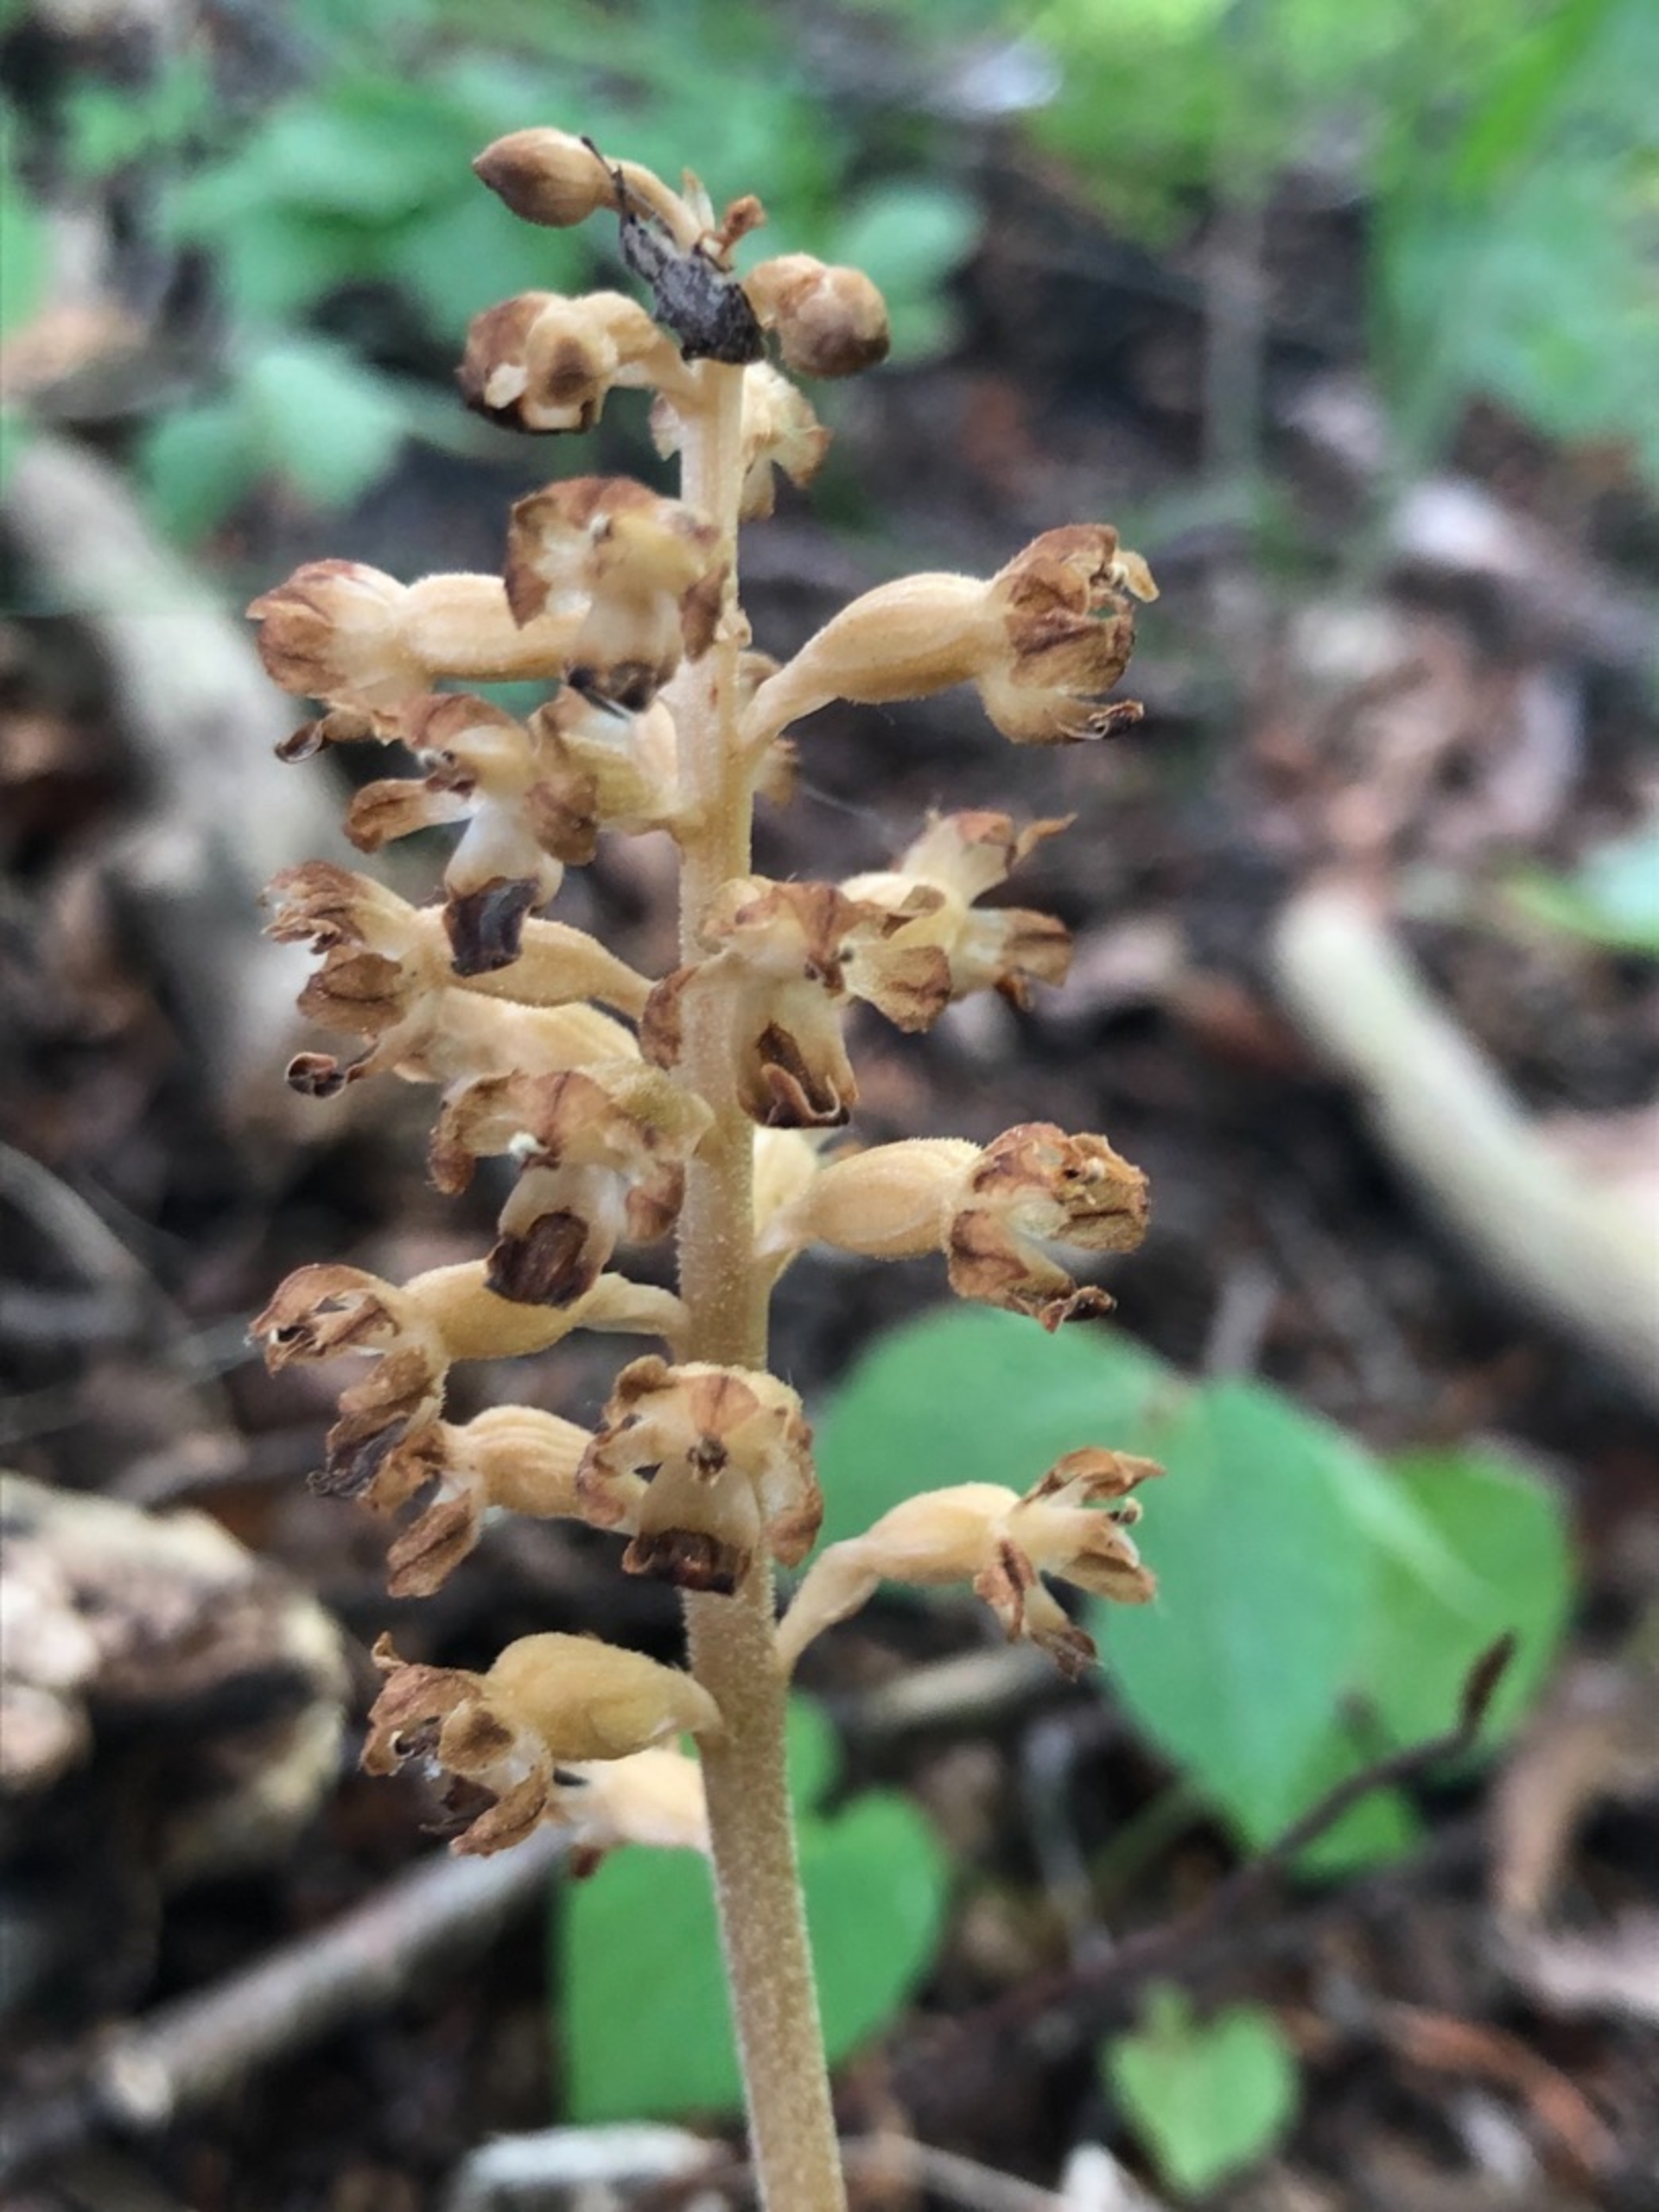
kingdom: Plantae
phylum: Tracheophyta
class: Liliopsida
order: Asparagales
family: Orchidaceae
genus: Neottia
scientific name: Neottia nidus-avis
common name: Rederod
